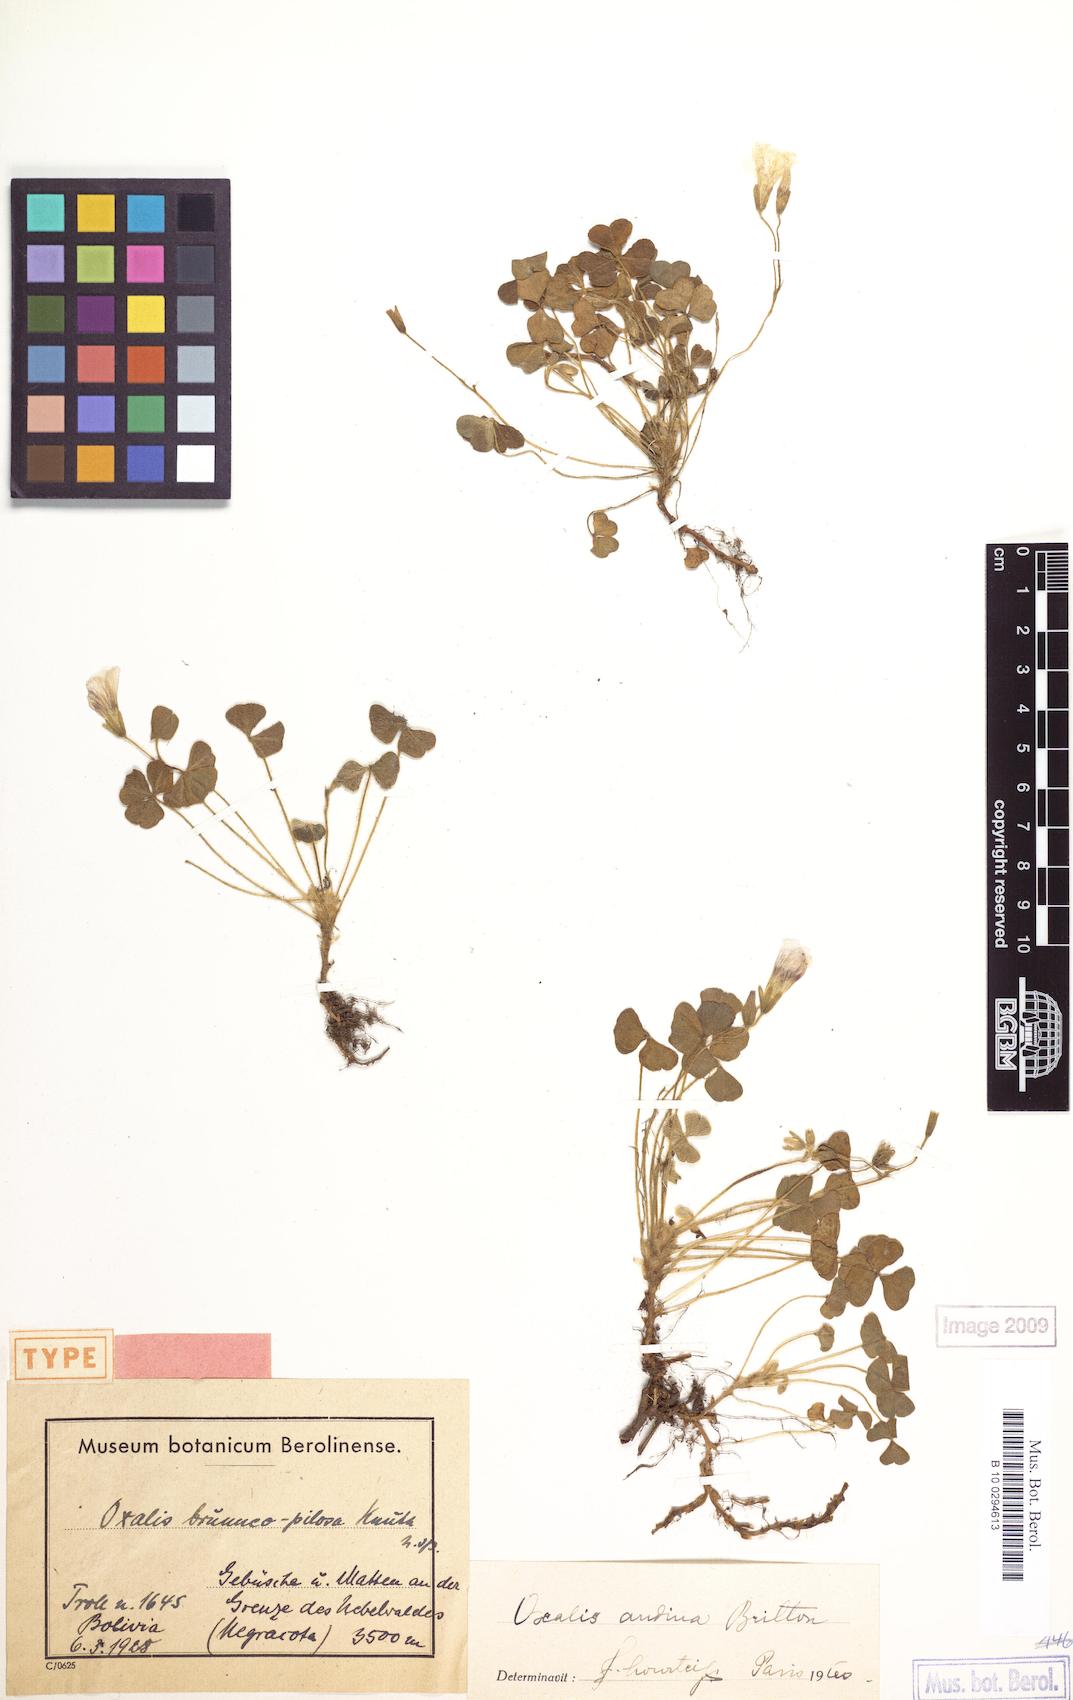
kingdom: Plantae
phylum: Tracheophyta
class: Magnoliopsida
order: Oxalidales
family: Oxalidaceae
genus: Oxalis
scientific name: Oxalis andina
